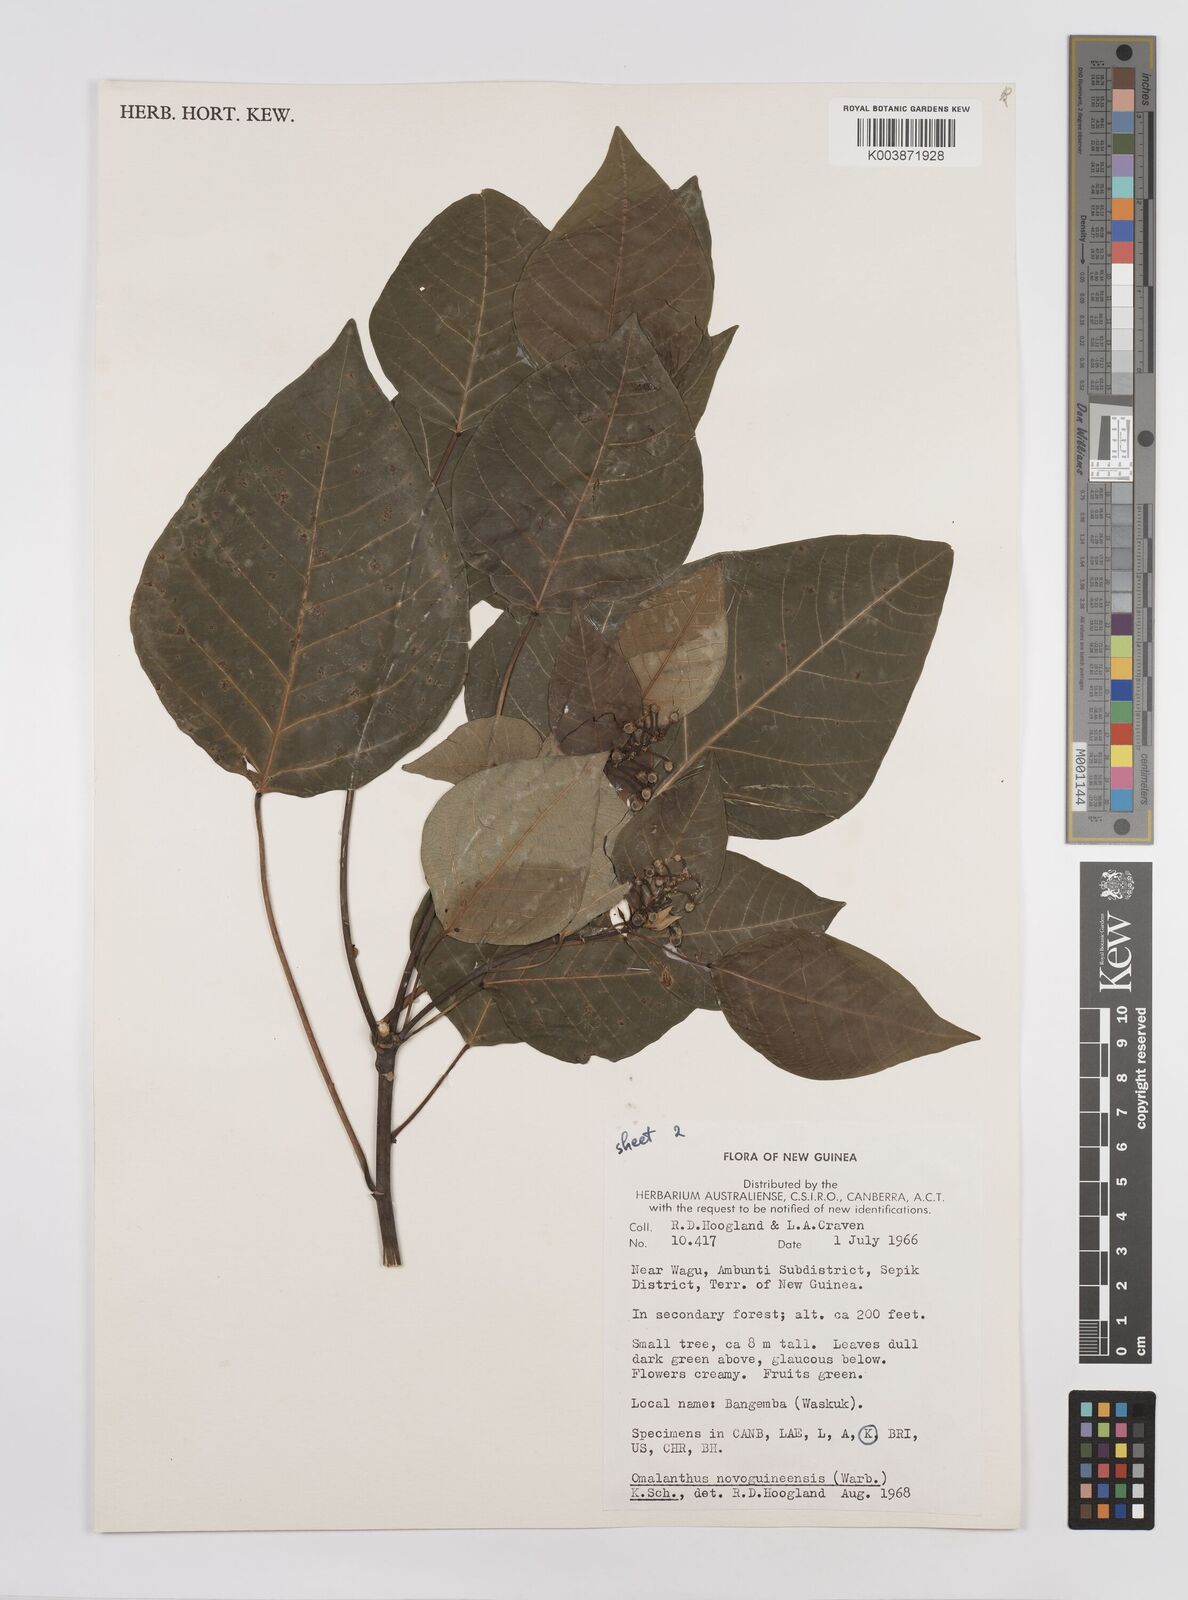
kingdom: Plantae
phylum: Tracheophyta
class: Magnoliopsida
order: Malpighiales
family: Euphorbiaceae
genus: Homalanthus
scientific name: Homalanthus novoguineensis
